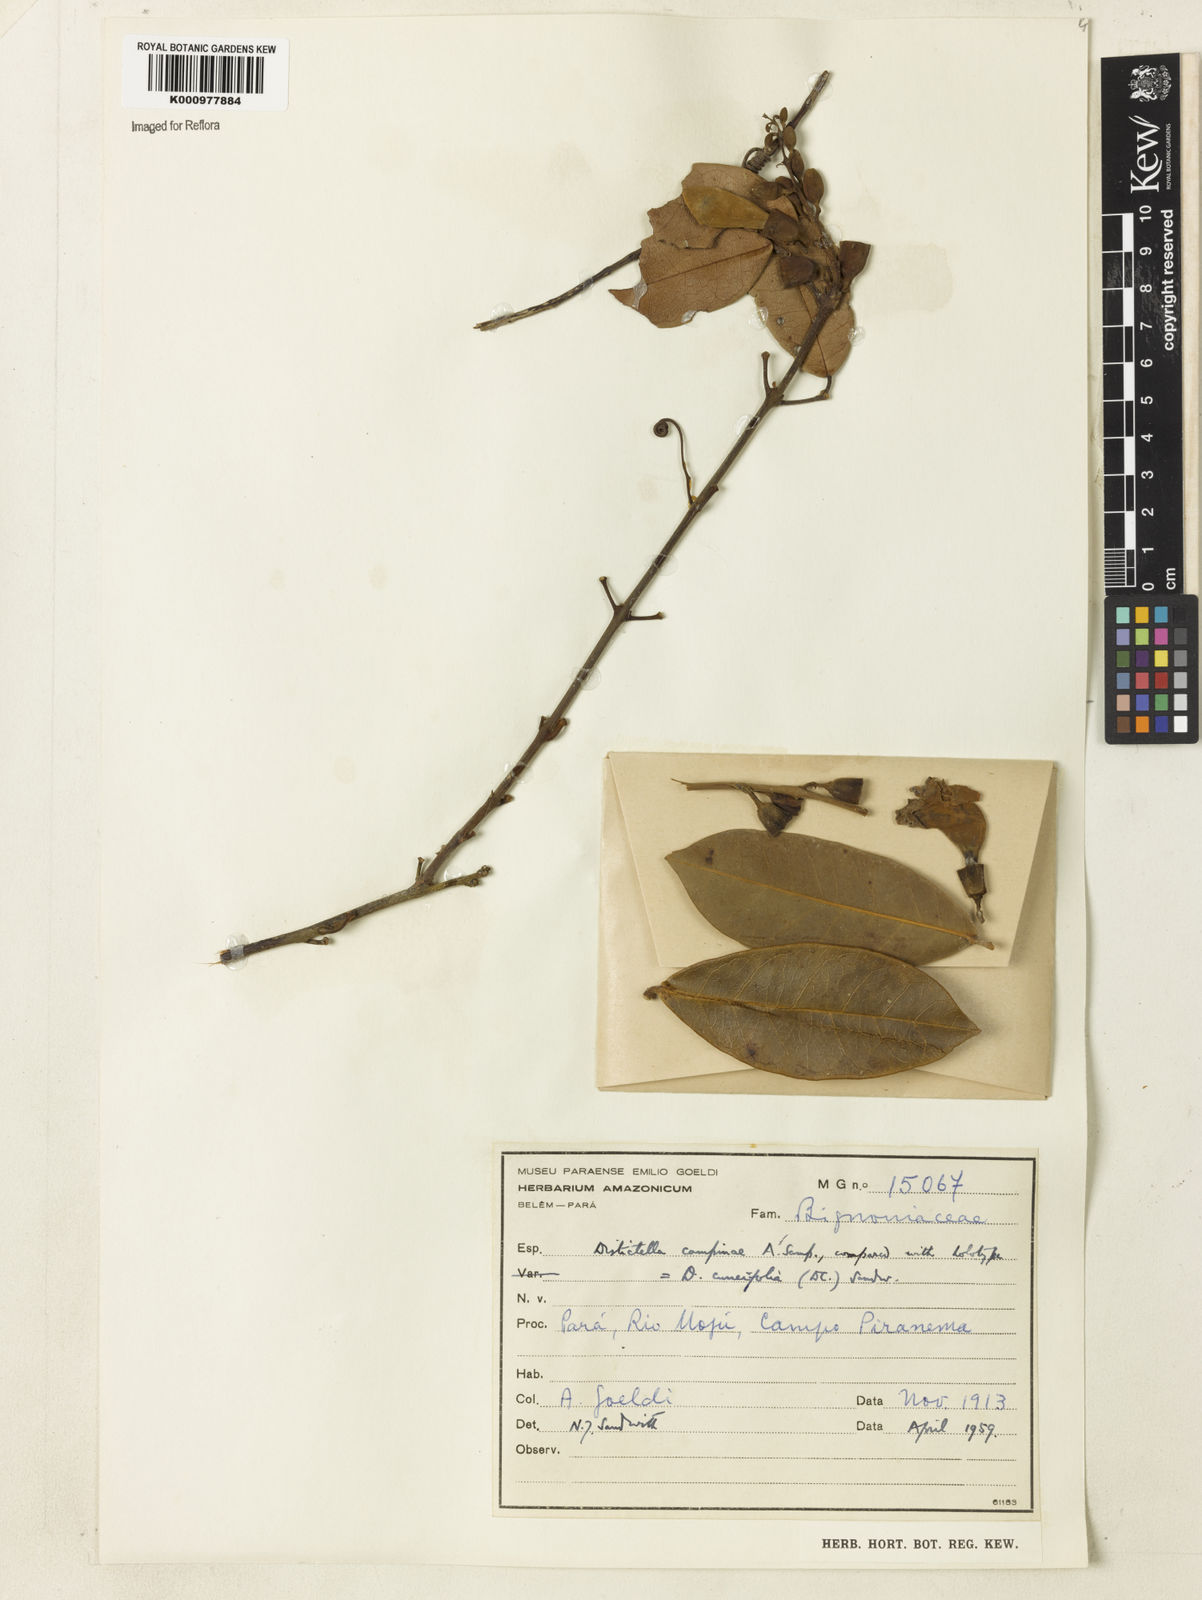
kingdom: Plantae
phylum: Tracheophyta
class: Magnoliopsida
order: Lamiales
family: Bignoniaceae
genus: Amphilophium
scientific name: Amphilophium cuneifolium
